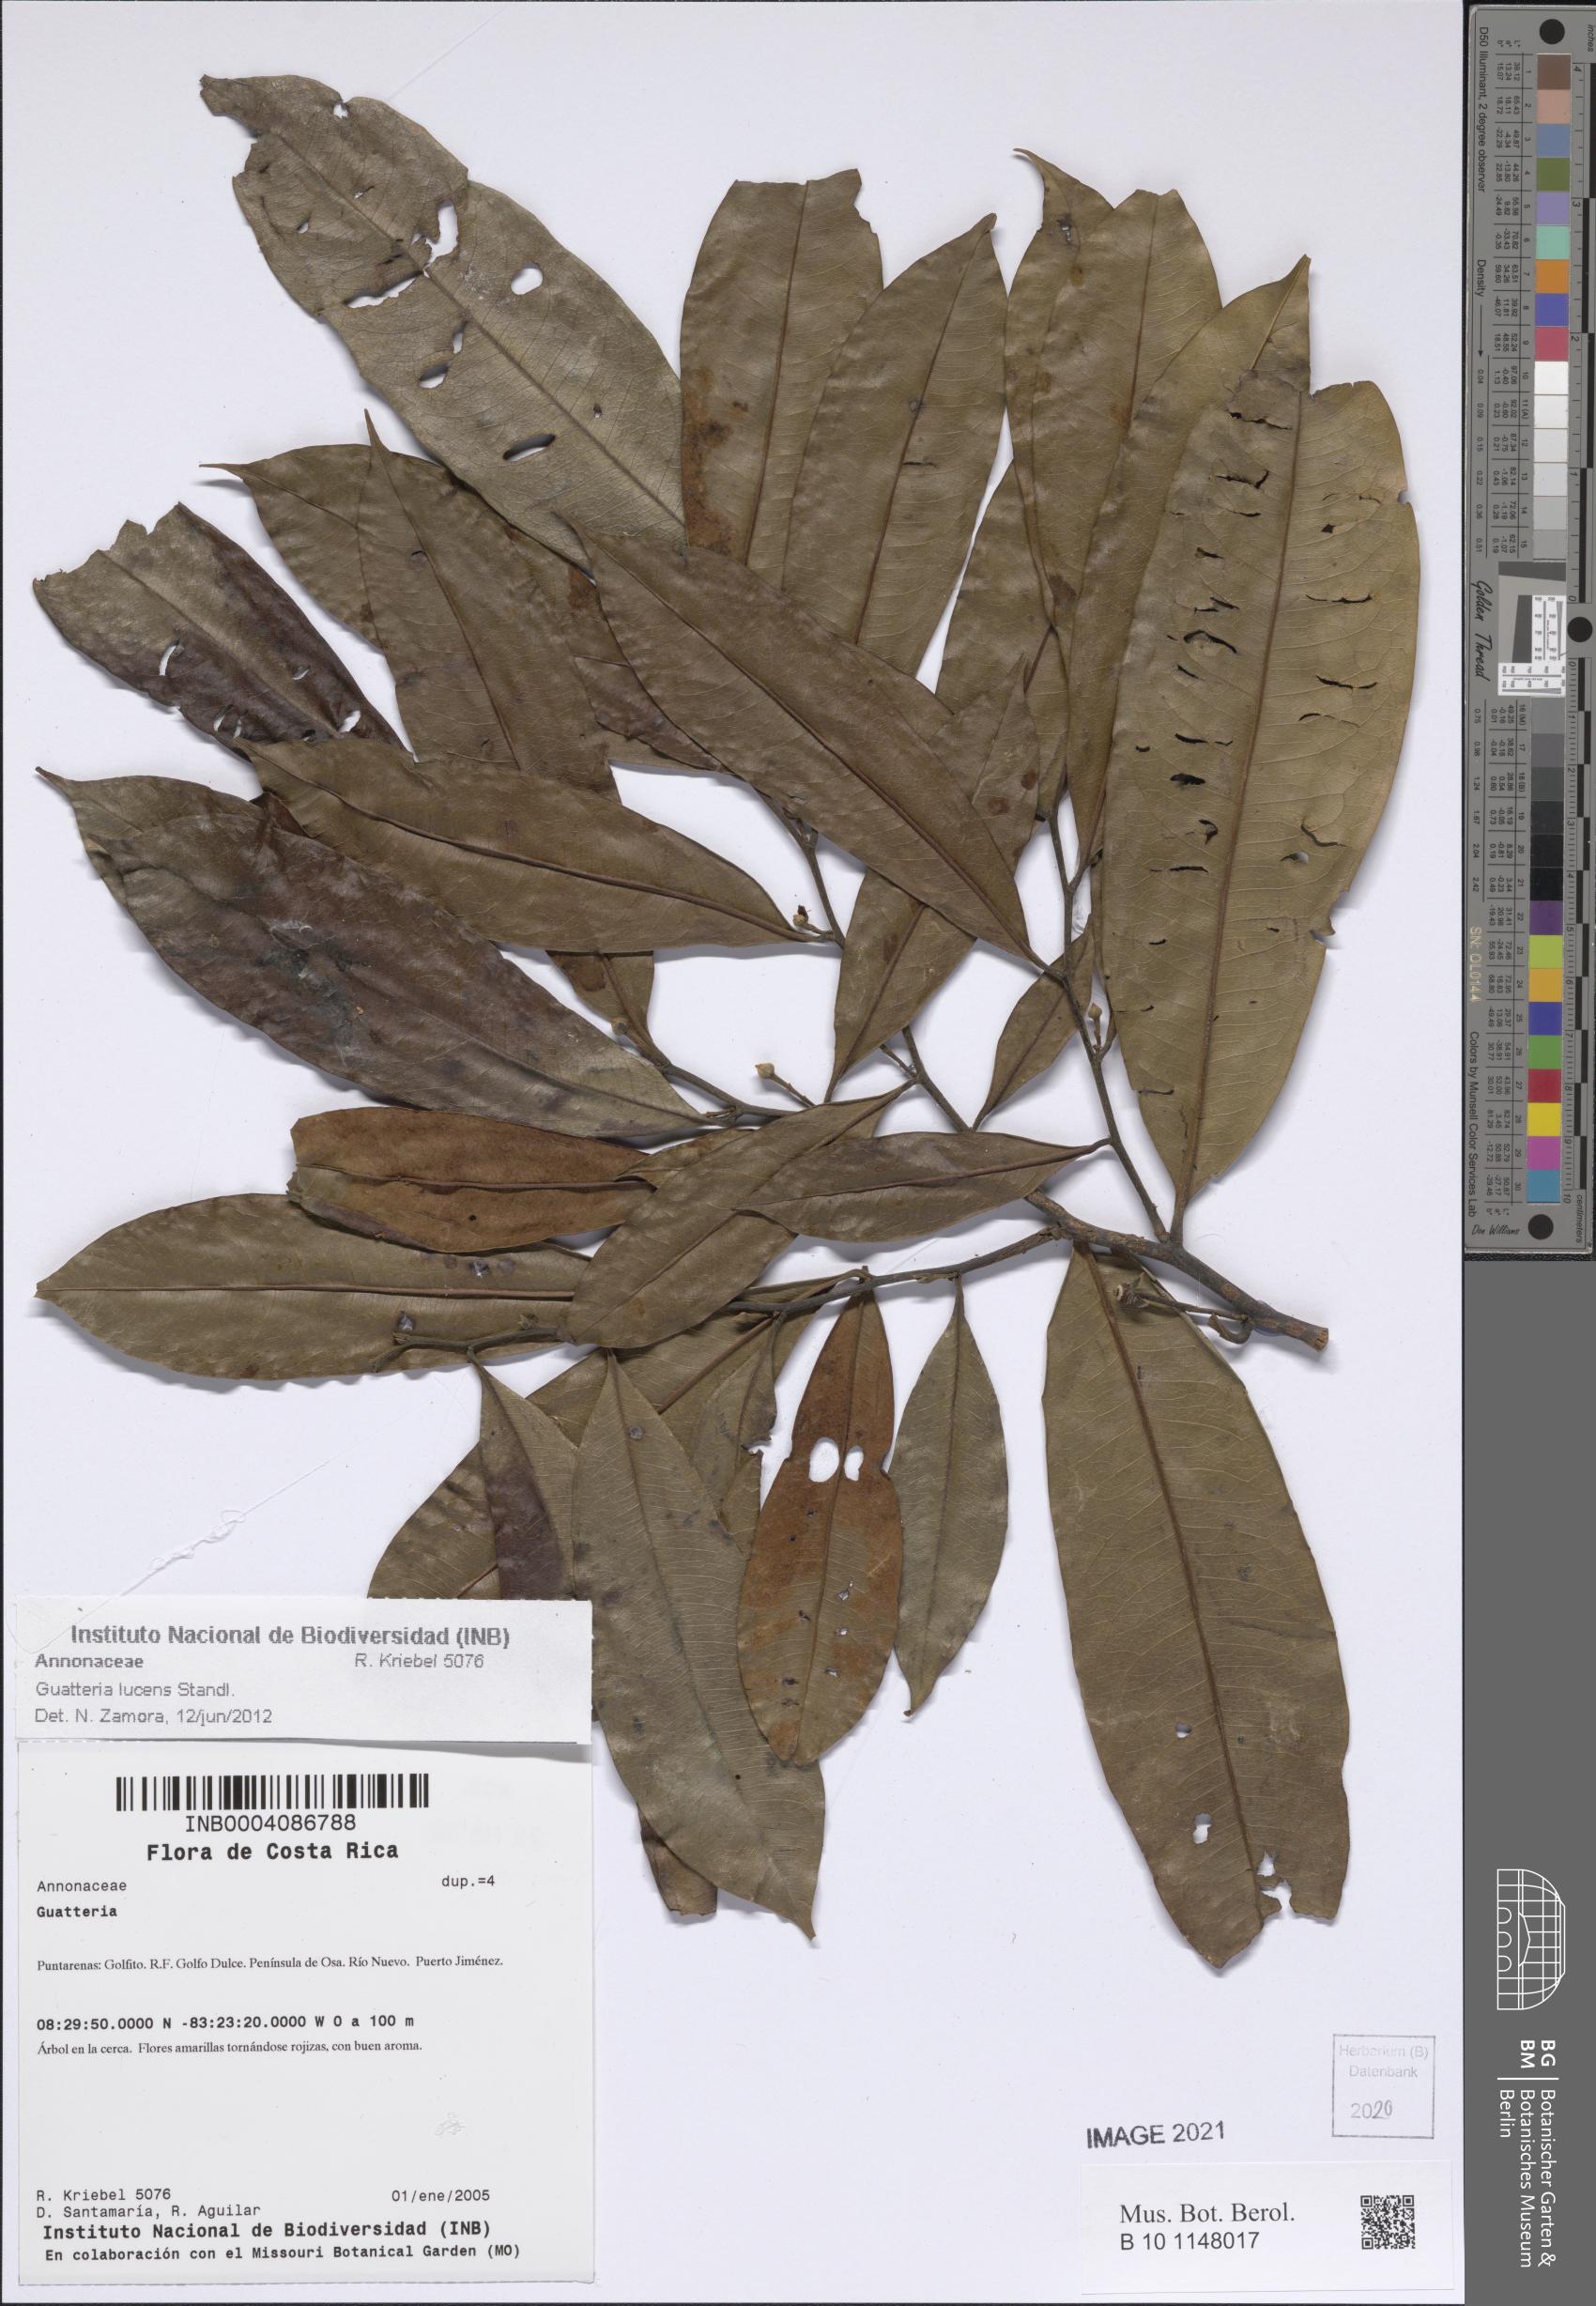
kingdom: Plantae
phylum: Tracheophyta
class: Magnoliopsida
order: Magnoliales
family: Annonaceae
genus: Guatteria
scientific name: Guatteria lucens
